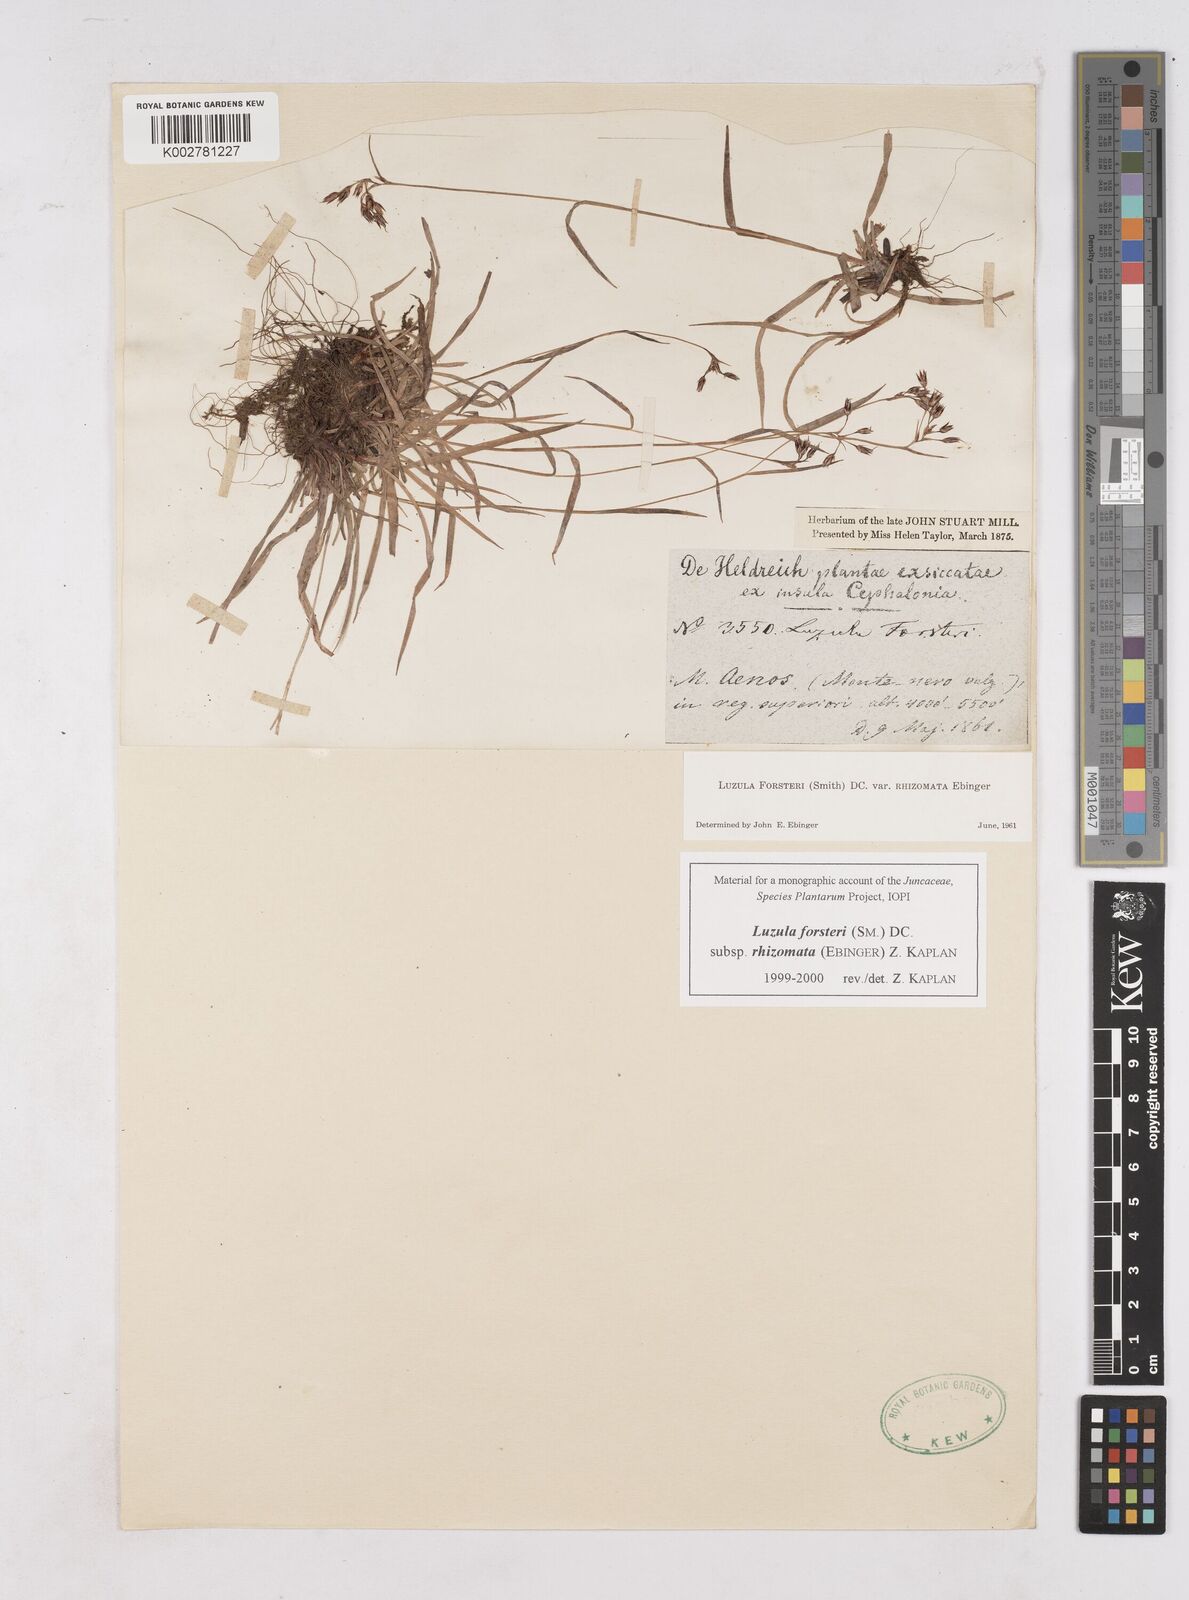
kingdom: Plantae
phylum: Tracheophyta
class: Liliopsida
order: Poales
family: Juncaceae
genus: Luzula
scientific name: Luzula forsteri
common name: Southern wood-rush
